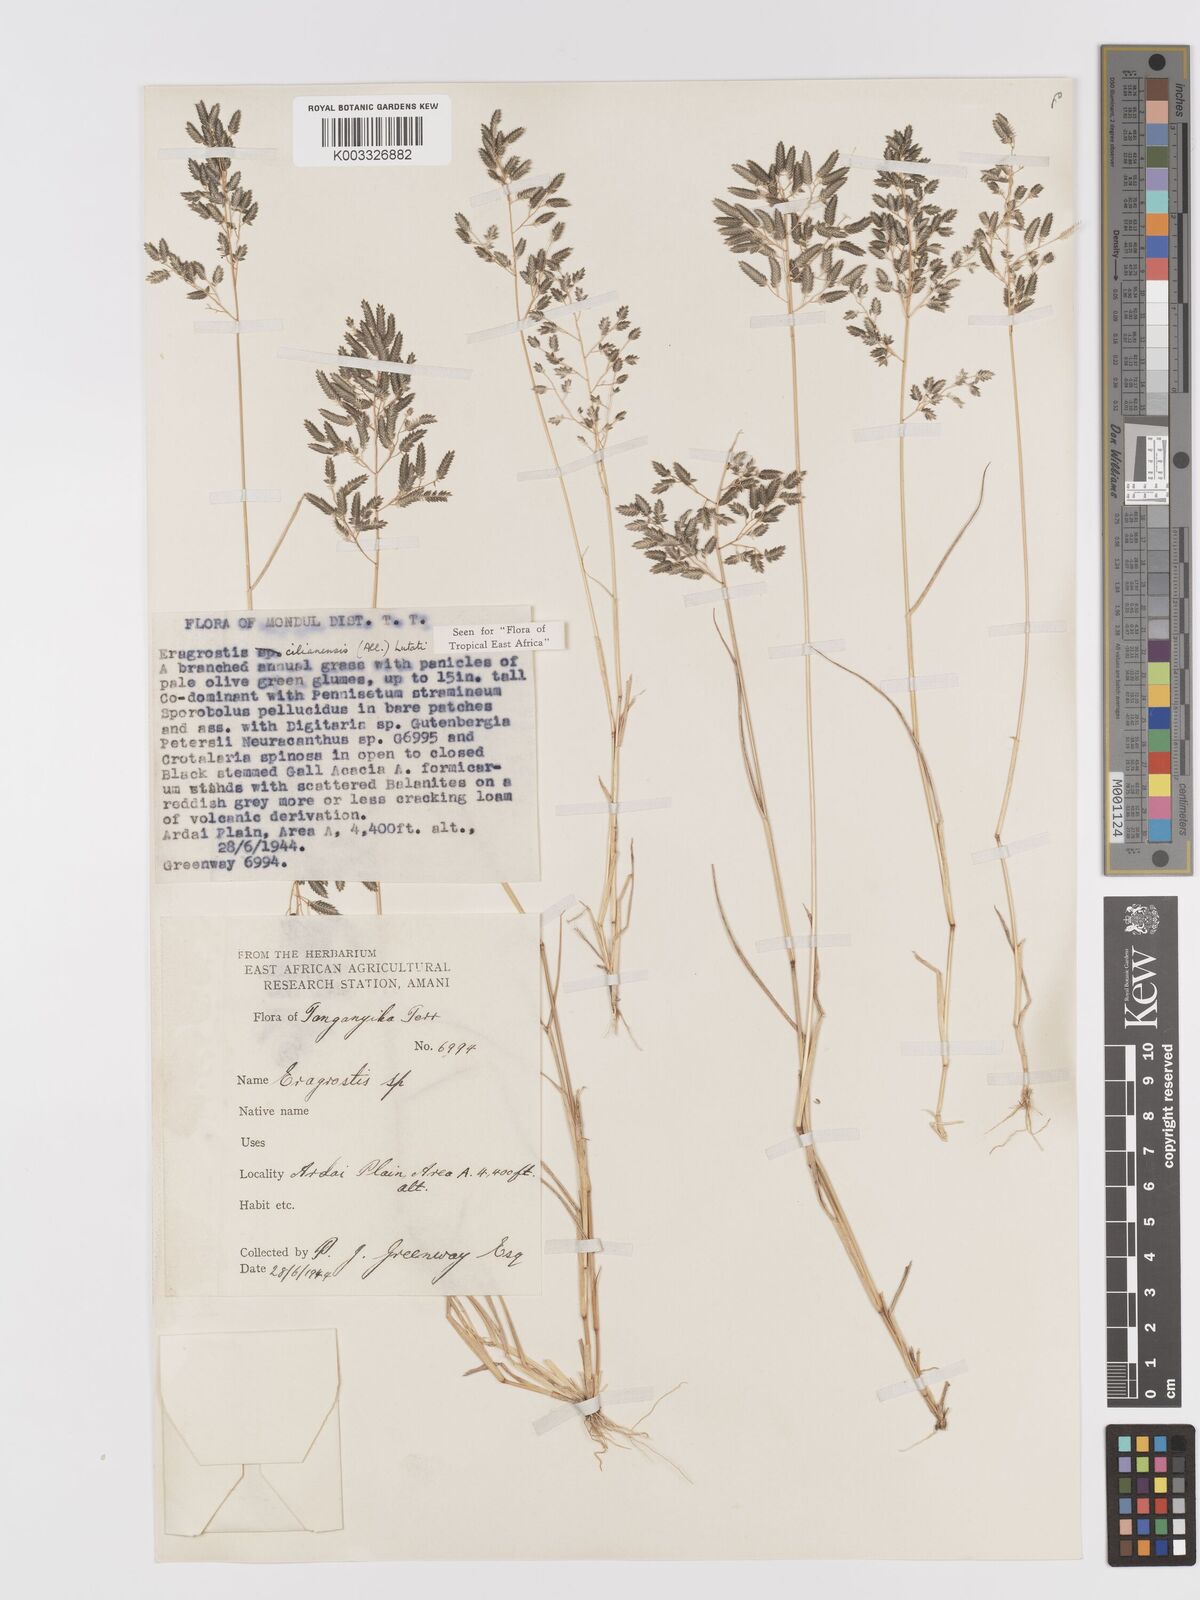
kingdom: Plantae
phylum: Tracheophyta
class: Liliopsida
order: Poales
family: Poaceae
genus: Eragrostis
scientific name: Eragrostis cilianensis
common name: Stinkgrass
